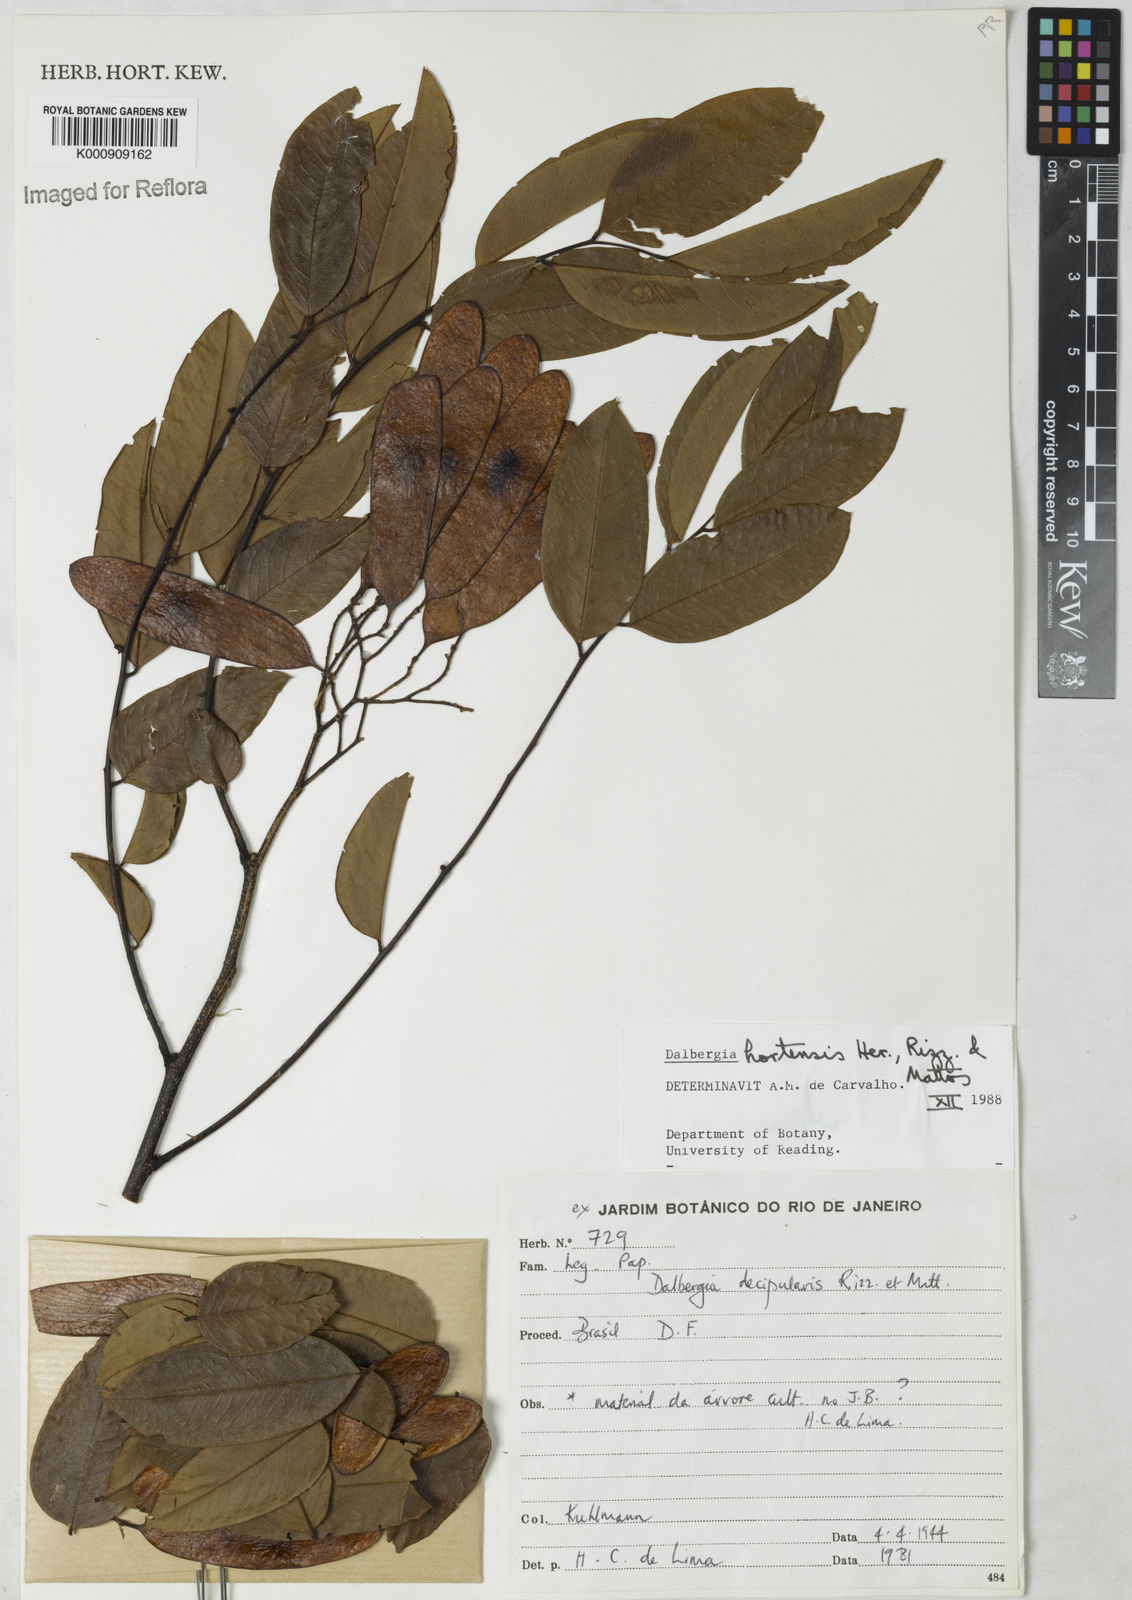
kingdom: Plantae
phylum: Tracheophyta
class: Magnoliopsida
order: Fabales
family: Fabaceae
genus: Dalbergia
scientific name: Dalbergia hortensis
